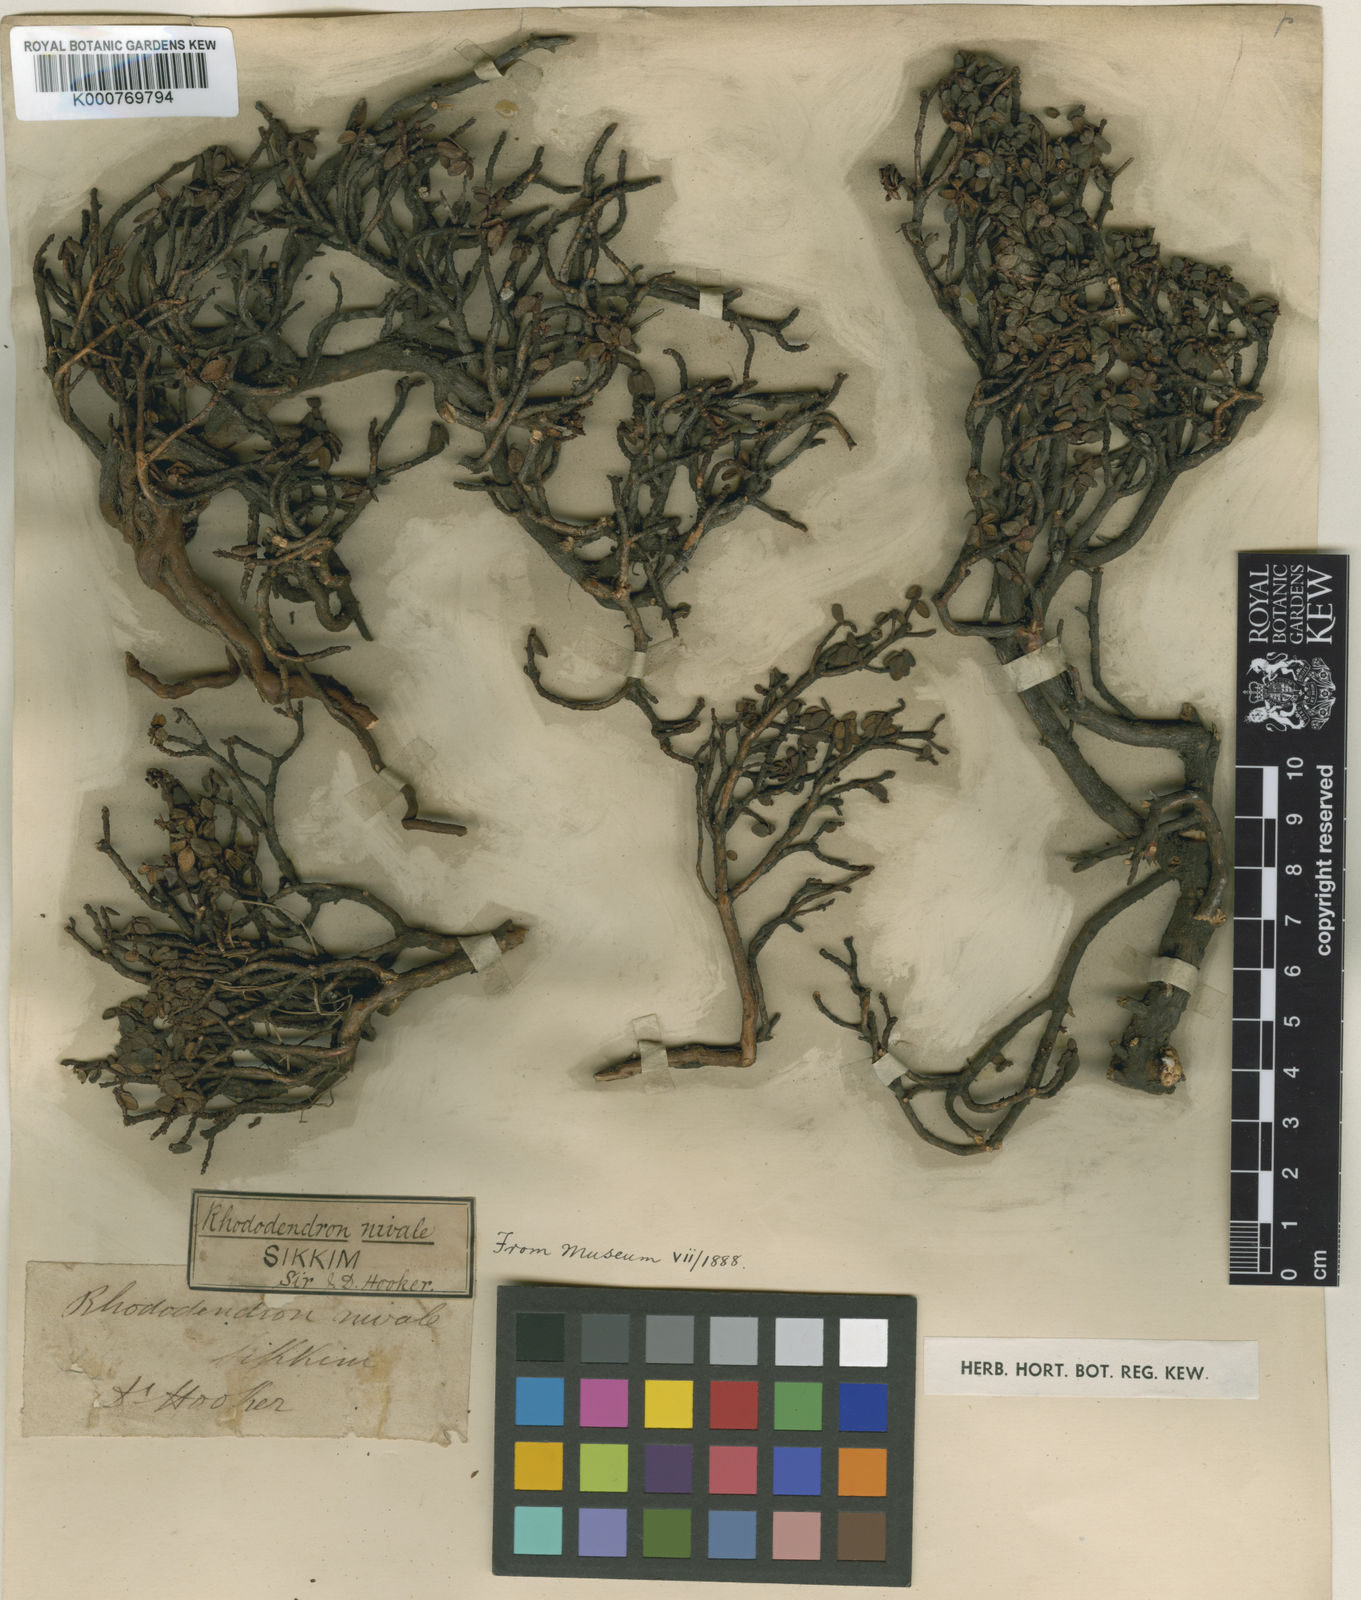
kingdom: Plantae
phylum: Tracheophyta
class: Magnoliopsida
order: Ericales
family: Ericaceae
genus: Rhododendron
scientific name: Rhododendron nivale
